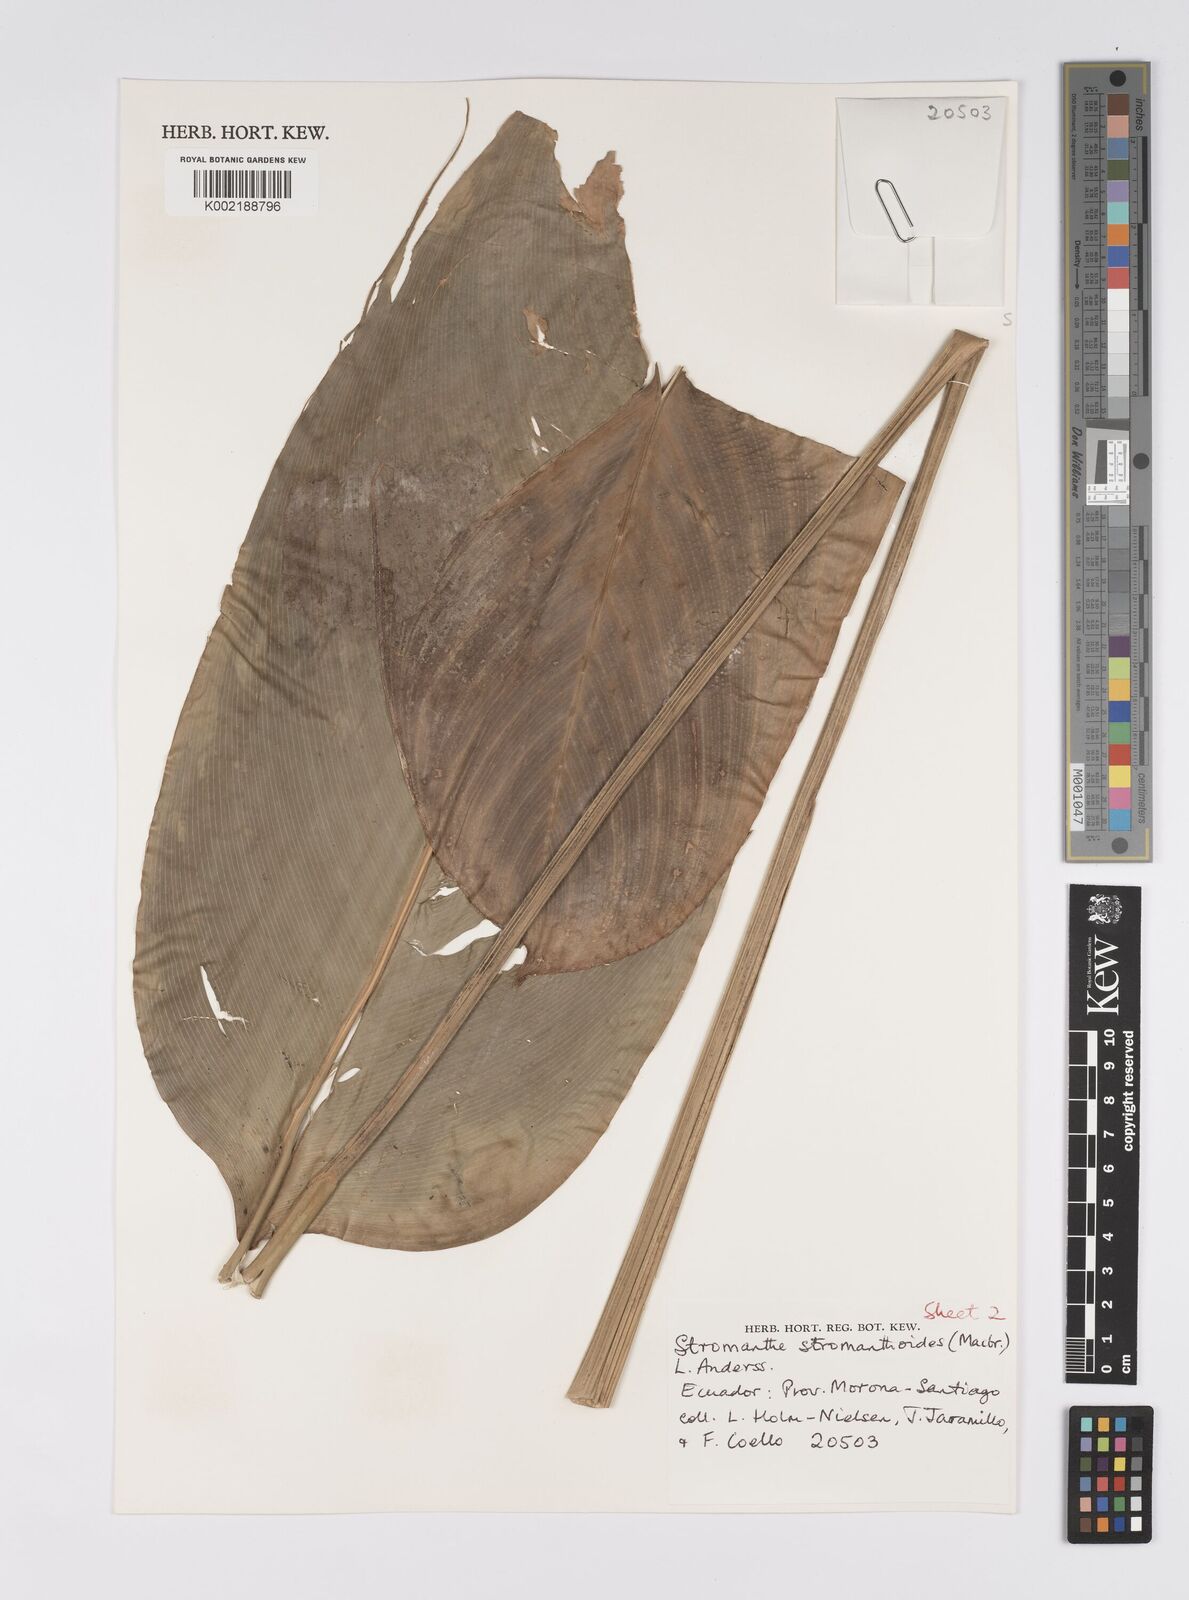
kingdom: Plantae
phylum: Tracheophyta
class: Liliopsida
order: Zingiberales
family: Marantaceae
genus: Stromanthe
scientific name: Stromanthe stromanthoides
